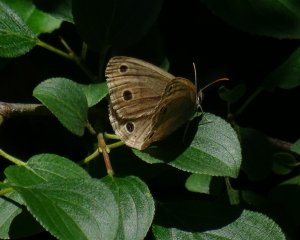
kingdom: Animalia
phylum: Arthropoda
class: Insecta
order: Lepidoptera
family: Nymphalidae
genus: Euptychia
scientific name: Euptychia cymela
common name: Little Wood Satyr
